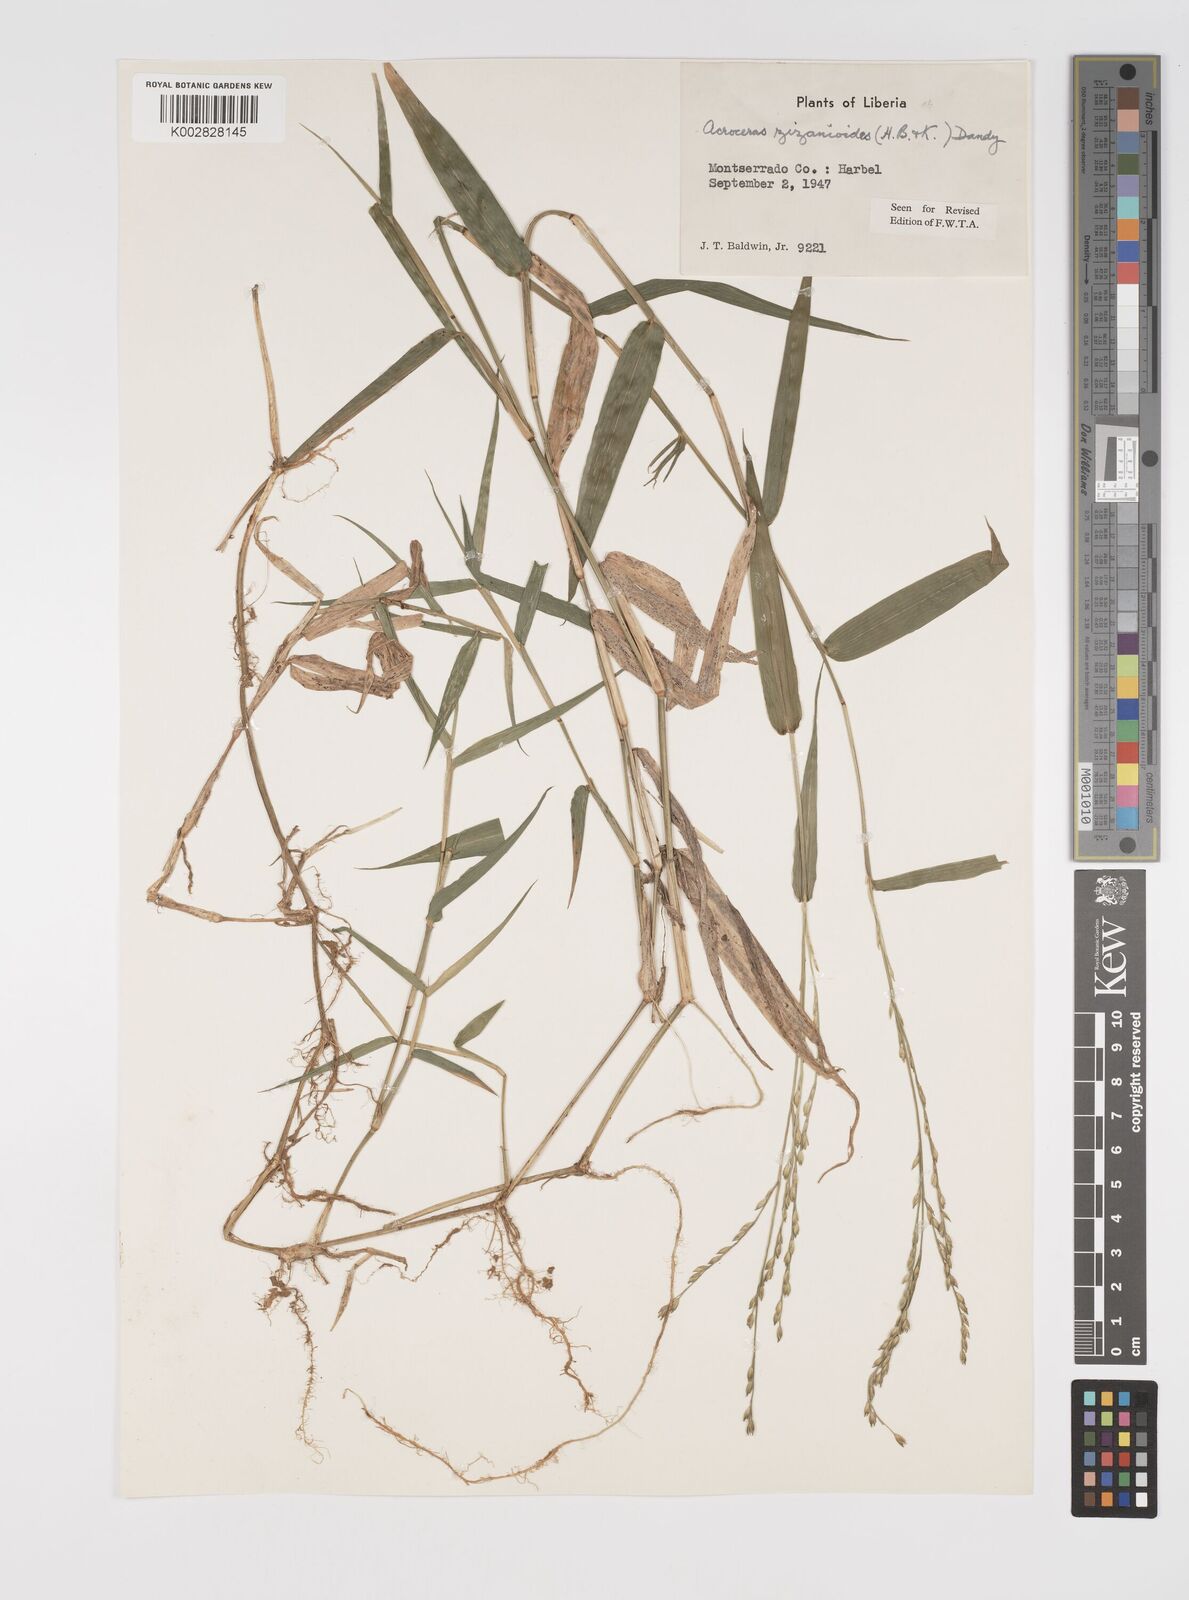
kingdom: Plantae
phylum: Tracheophyta
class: Liliopsida
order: Poales
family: Poaceae
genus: Acroceras
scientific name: Acroceras zizanioides
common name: Oat grass
